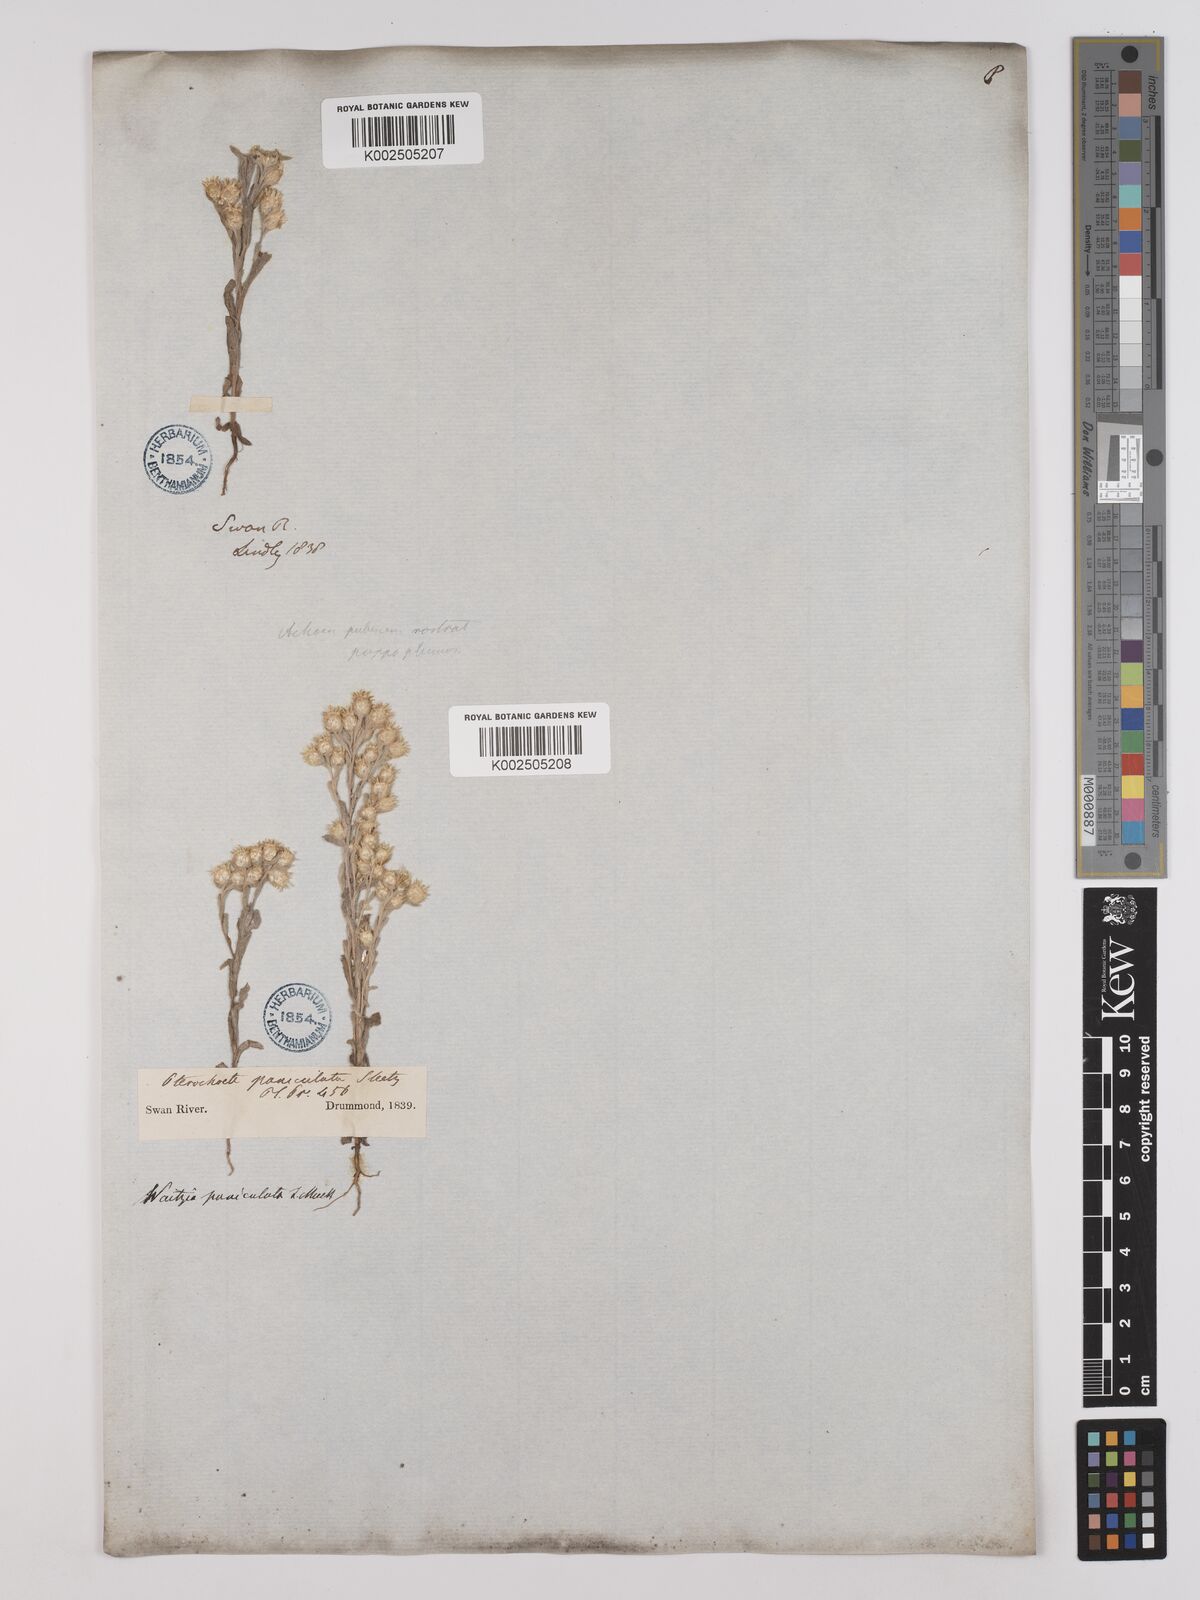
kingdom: Plantae
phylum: Tracheophyta
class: Magnoliopsida
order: Asterales
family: Asteraceae
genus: Pterochaeta
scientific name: Pterochaeta paniculata
